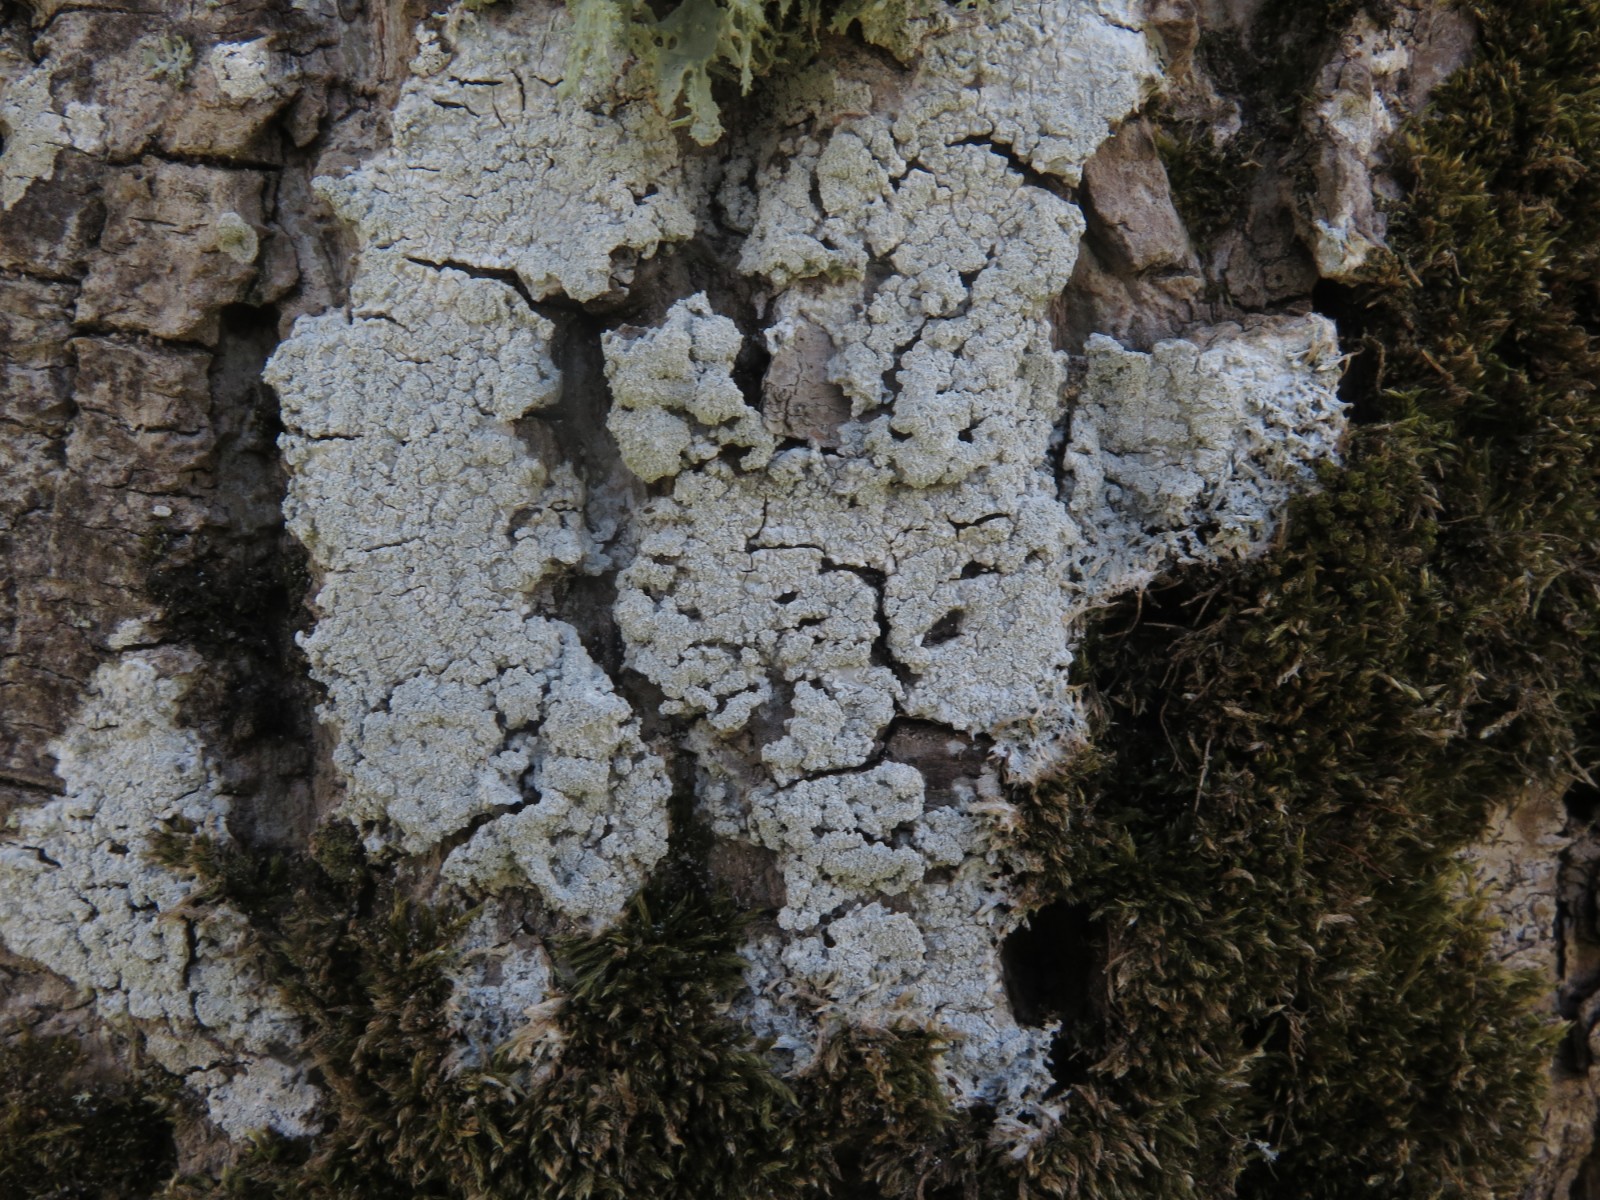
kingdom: Fungi
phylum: Ascomycota
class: Lecanoromycetes
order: Pertusariales
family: Pertusariaceae
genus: Lepra
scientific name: Lepra albescens
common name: hvidmelet prikvortelav
